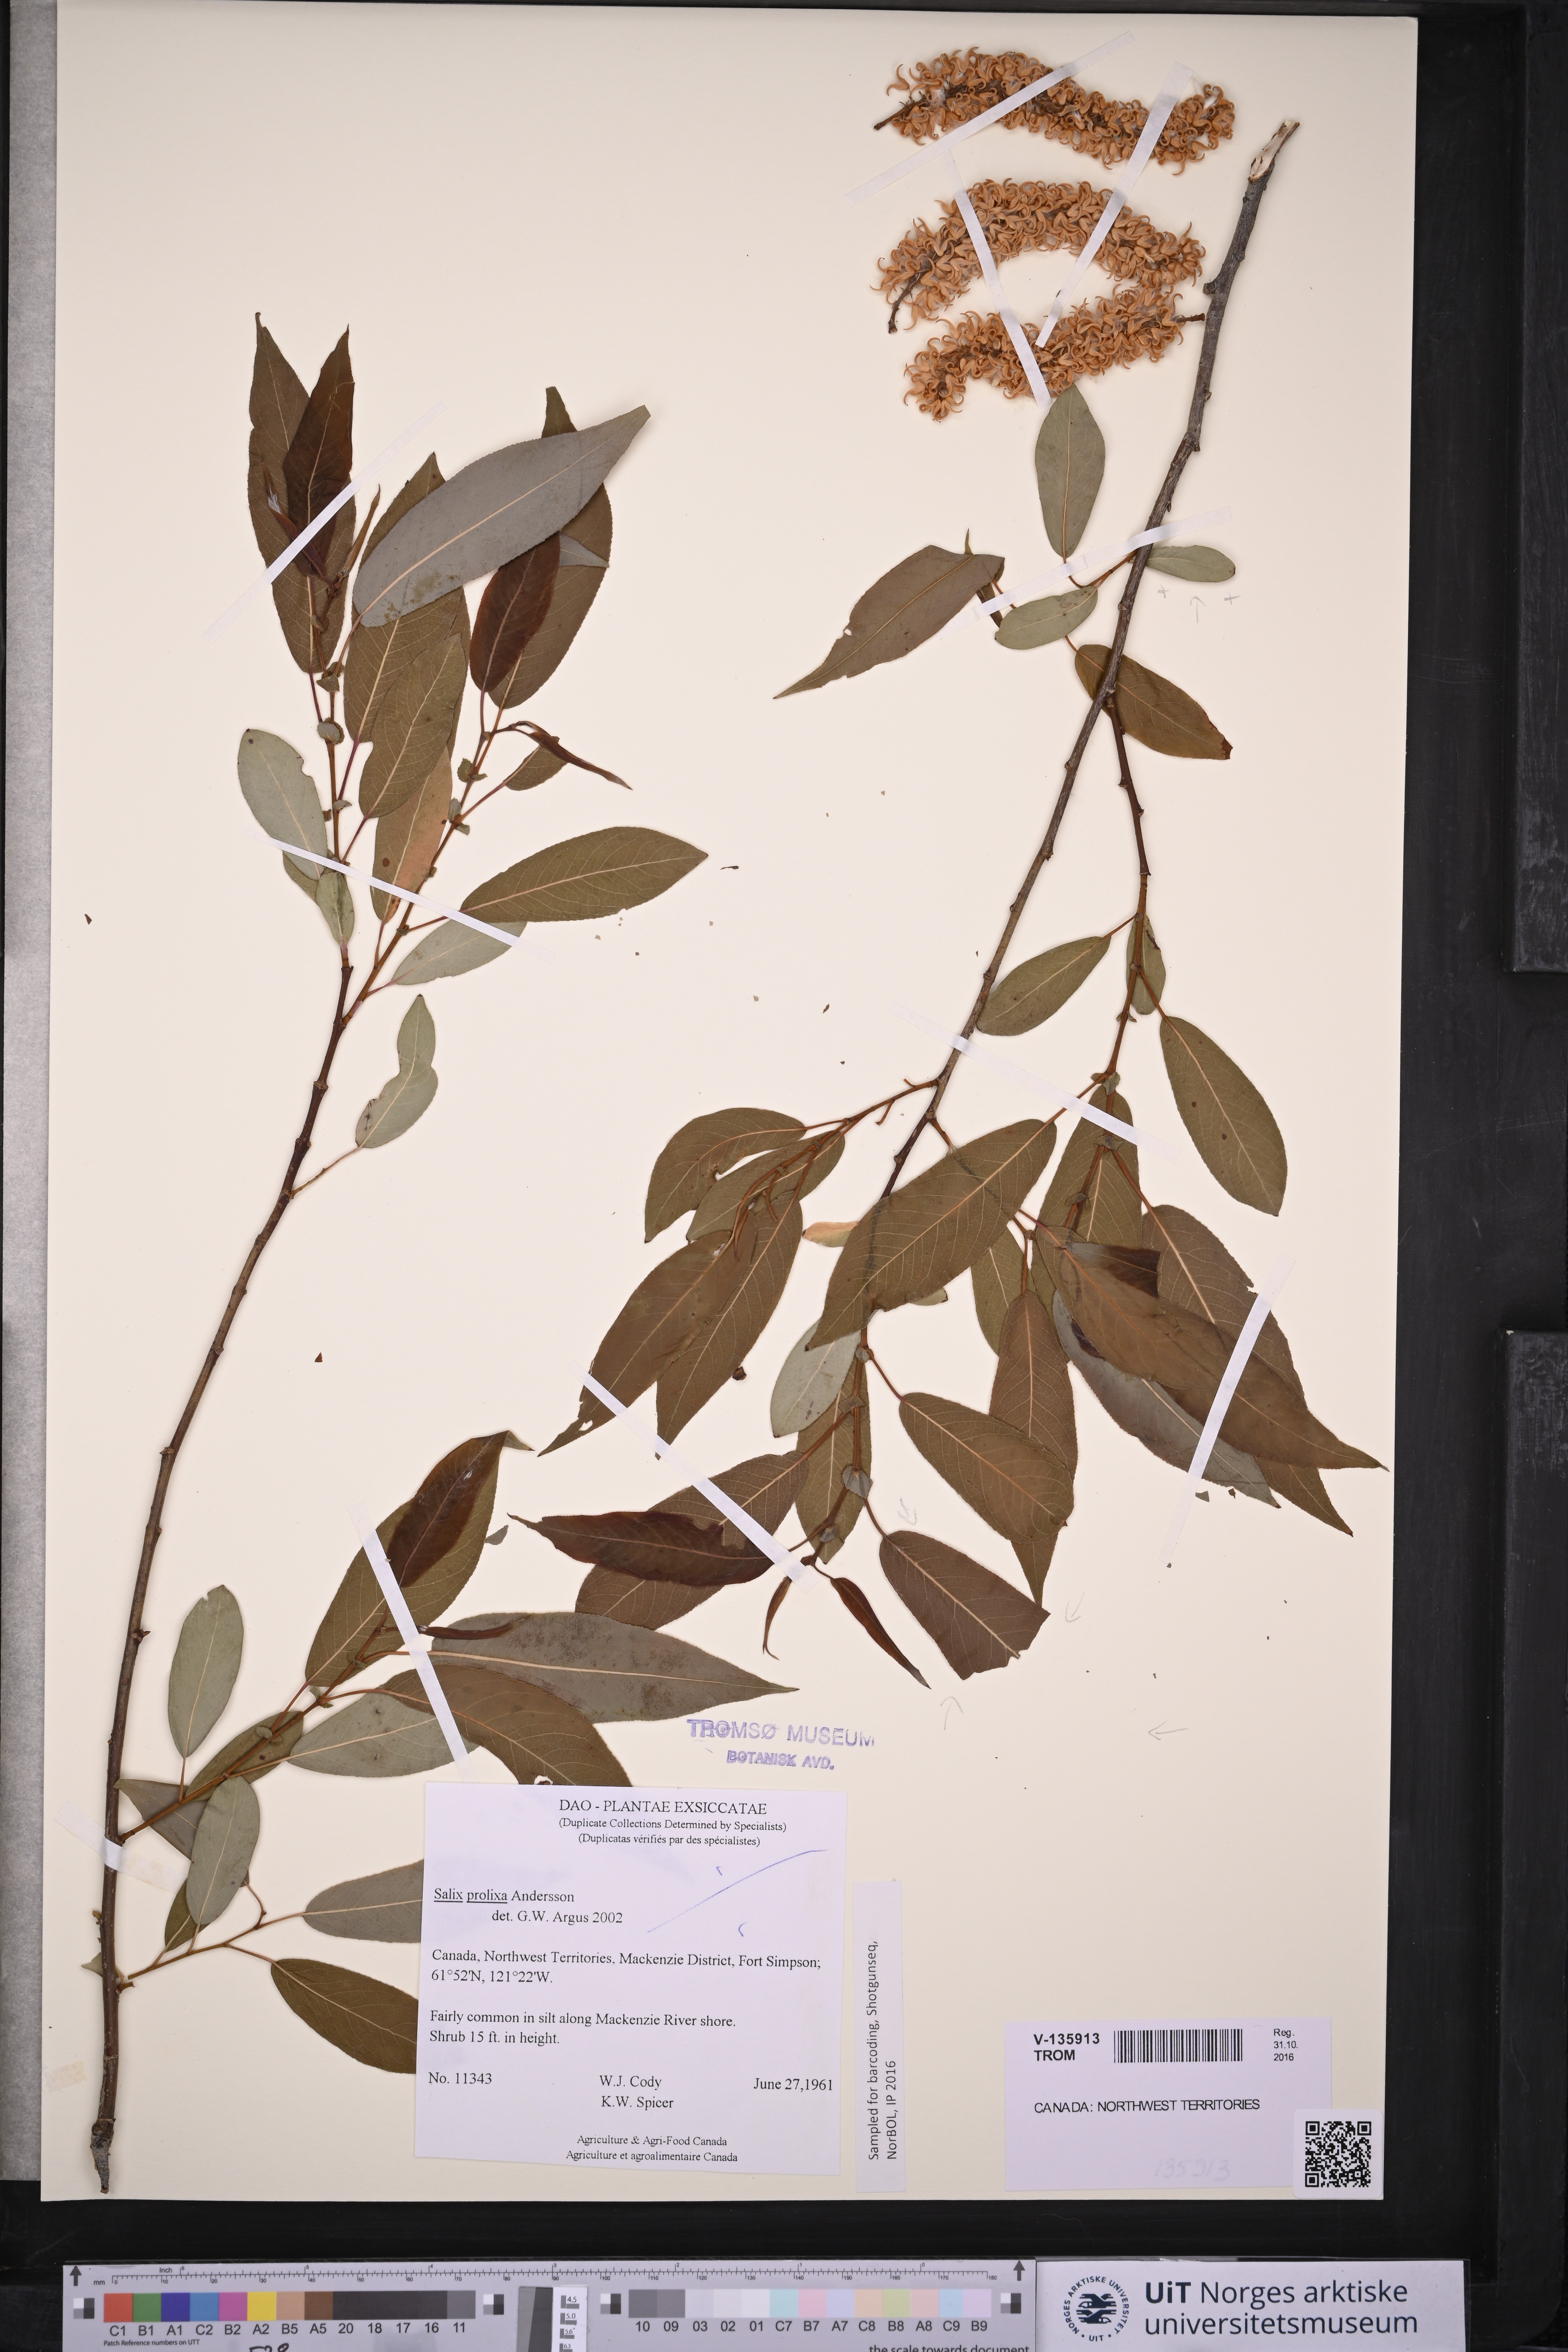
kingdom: Plantae
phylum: Tracheophyta
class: Magnoliopsida
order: Malpighiales
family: Salicaceae
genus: Salix
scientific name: Salix prolixa
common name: Mackenzie's willow
